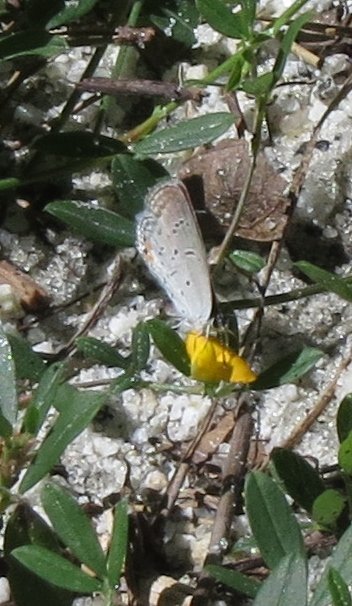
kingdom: Animalia
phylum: Arthropoda
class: Insecta
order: Lepidoptera
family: Lycaenidae
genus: Cyaniris
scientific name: Cyaniris neglecta
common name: Summer Azure
